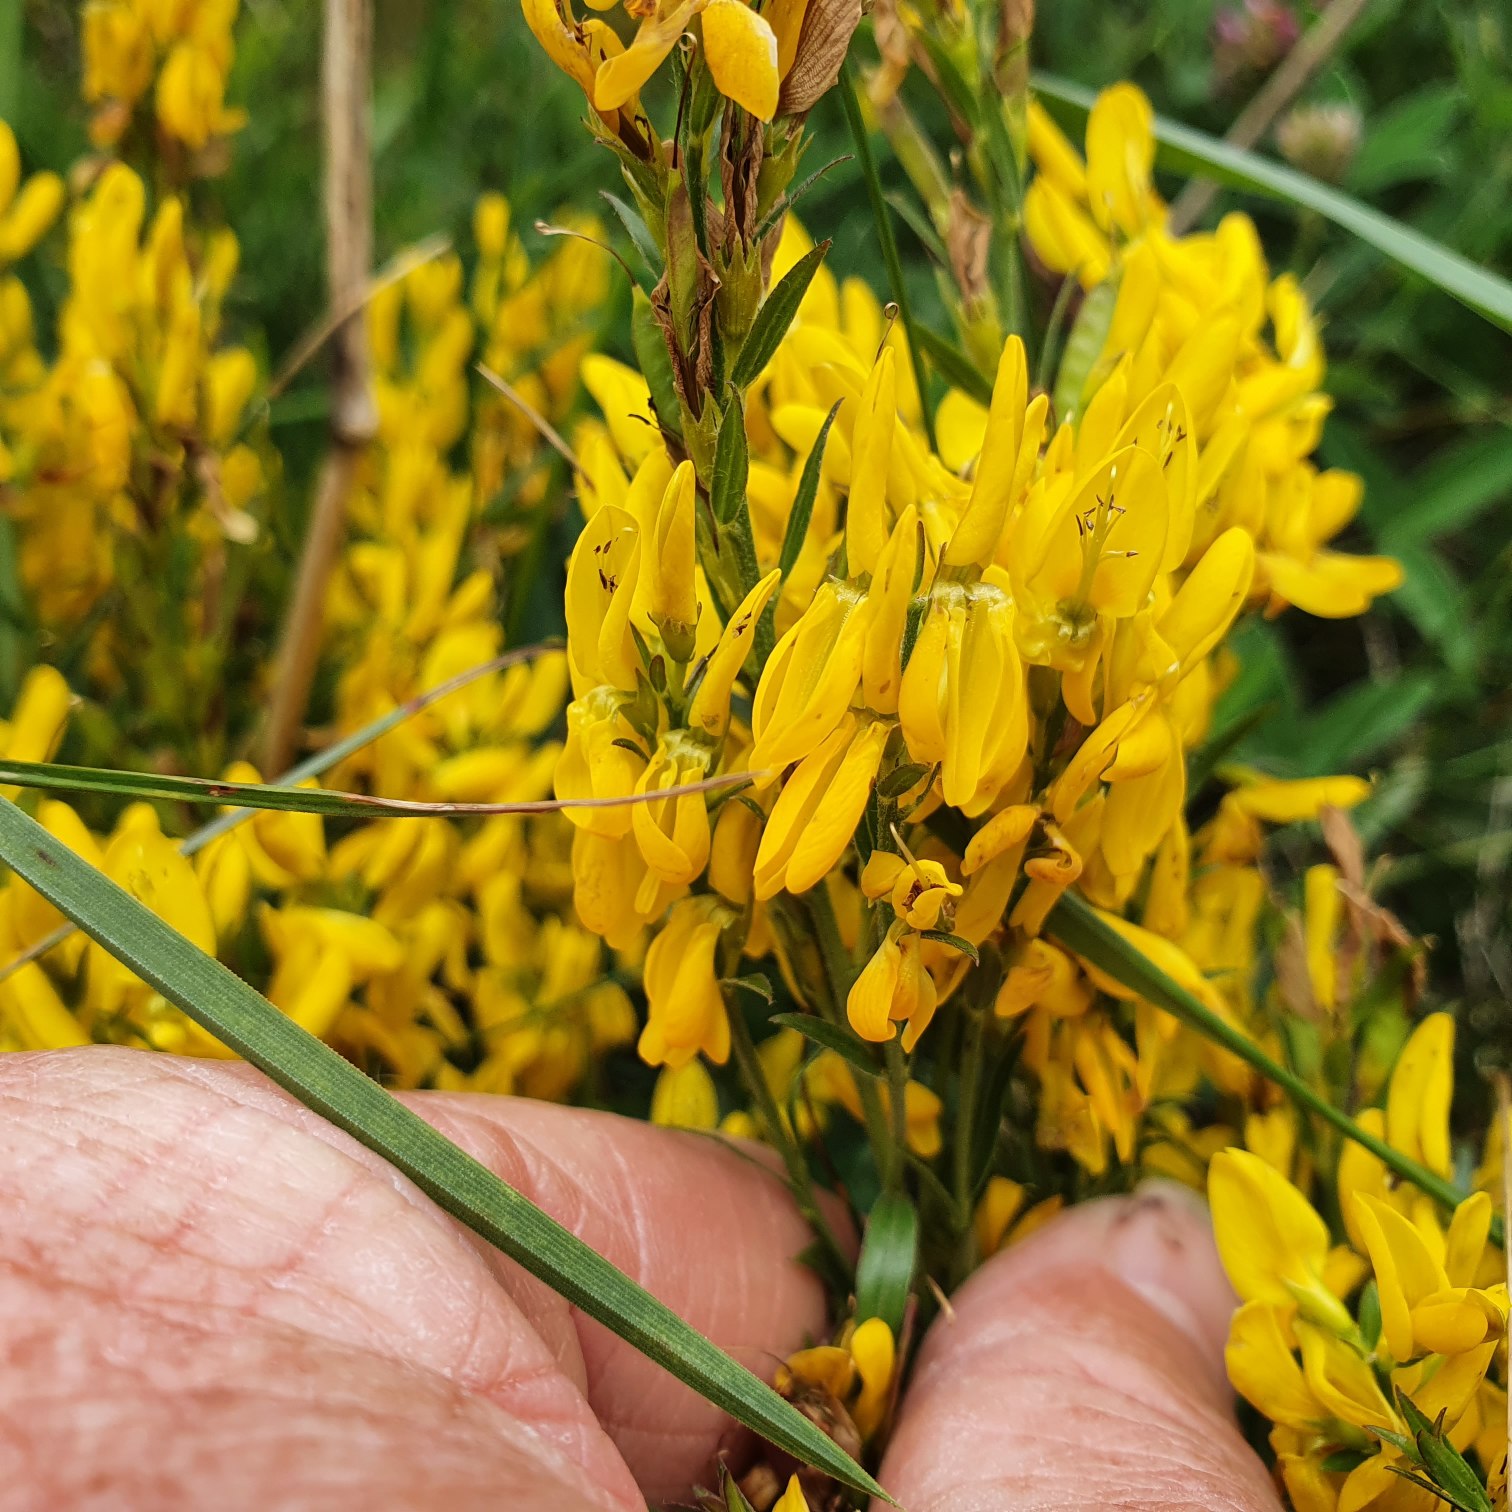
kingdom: Plantae
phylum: Tracheophyta
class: Magnoliopsida
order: Fabales
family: Fabaceae
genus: Genista
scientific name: Genista tinctoria
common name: Farve-visse
